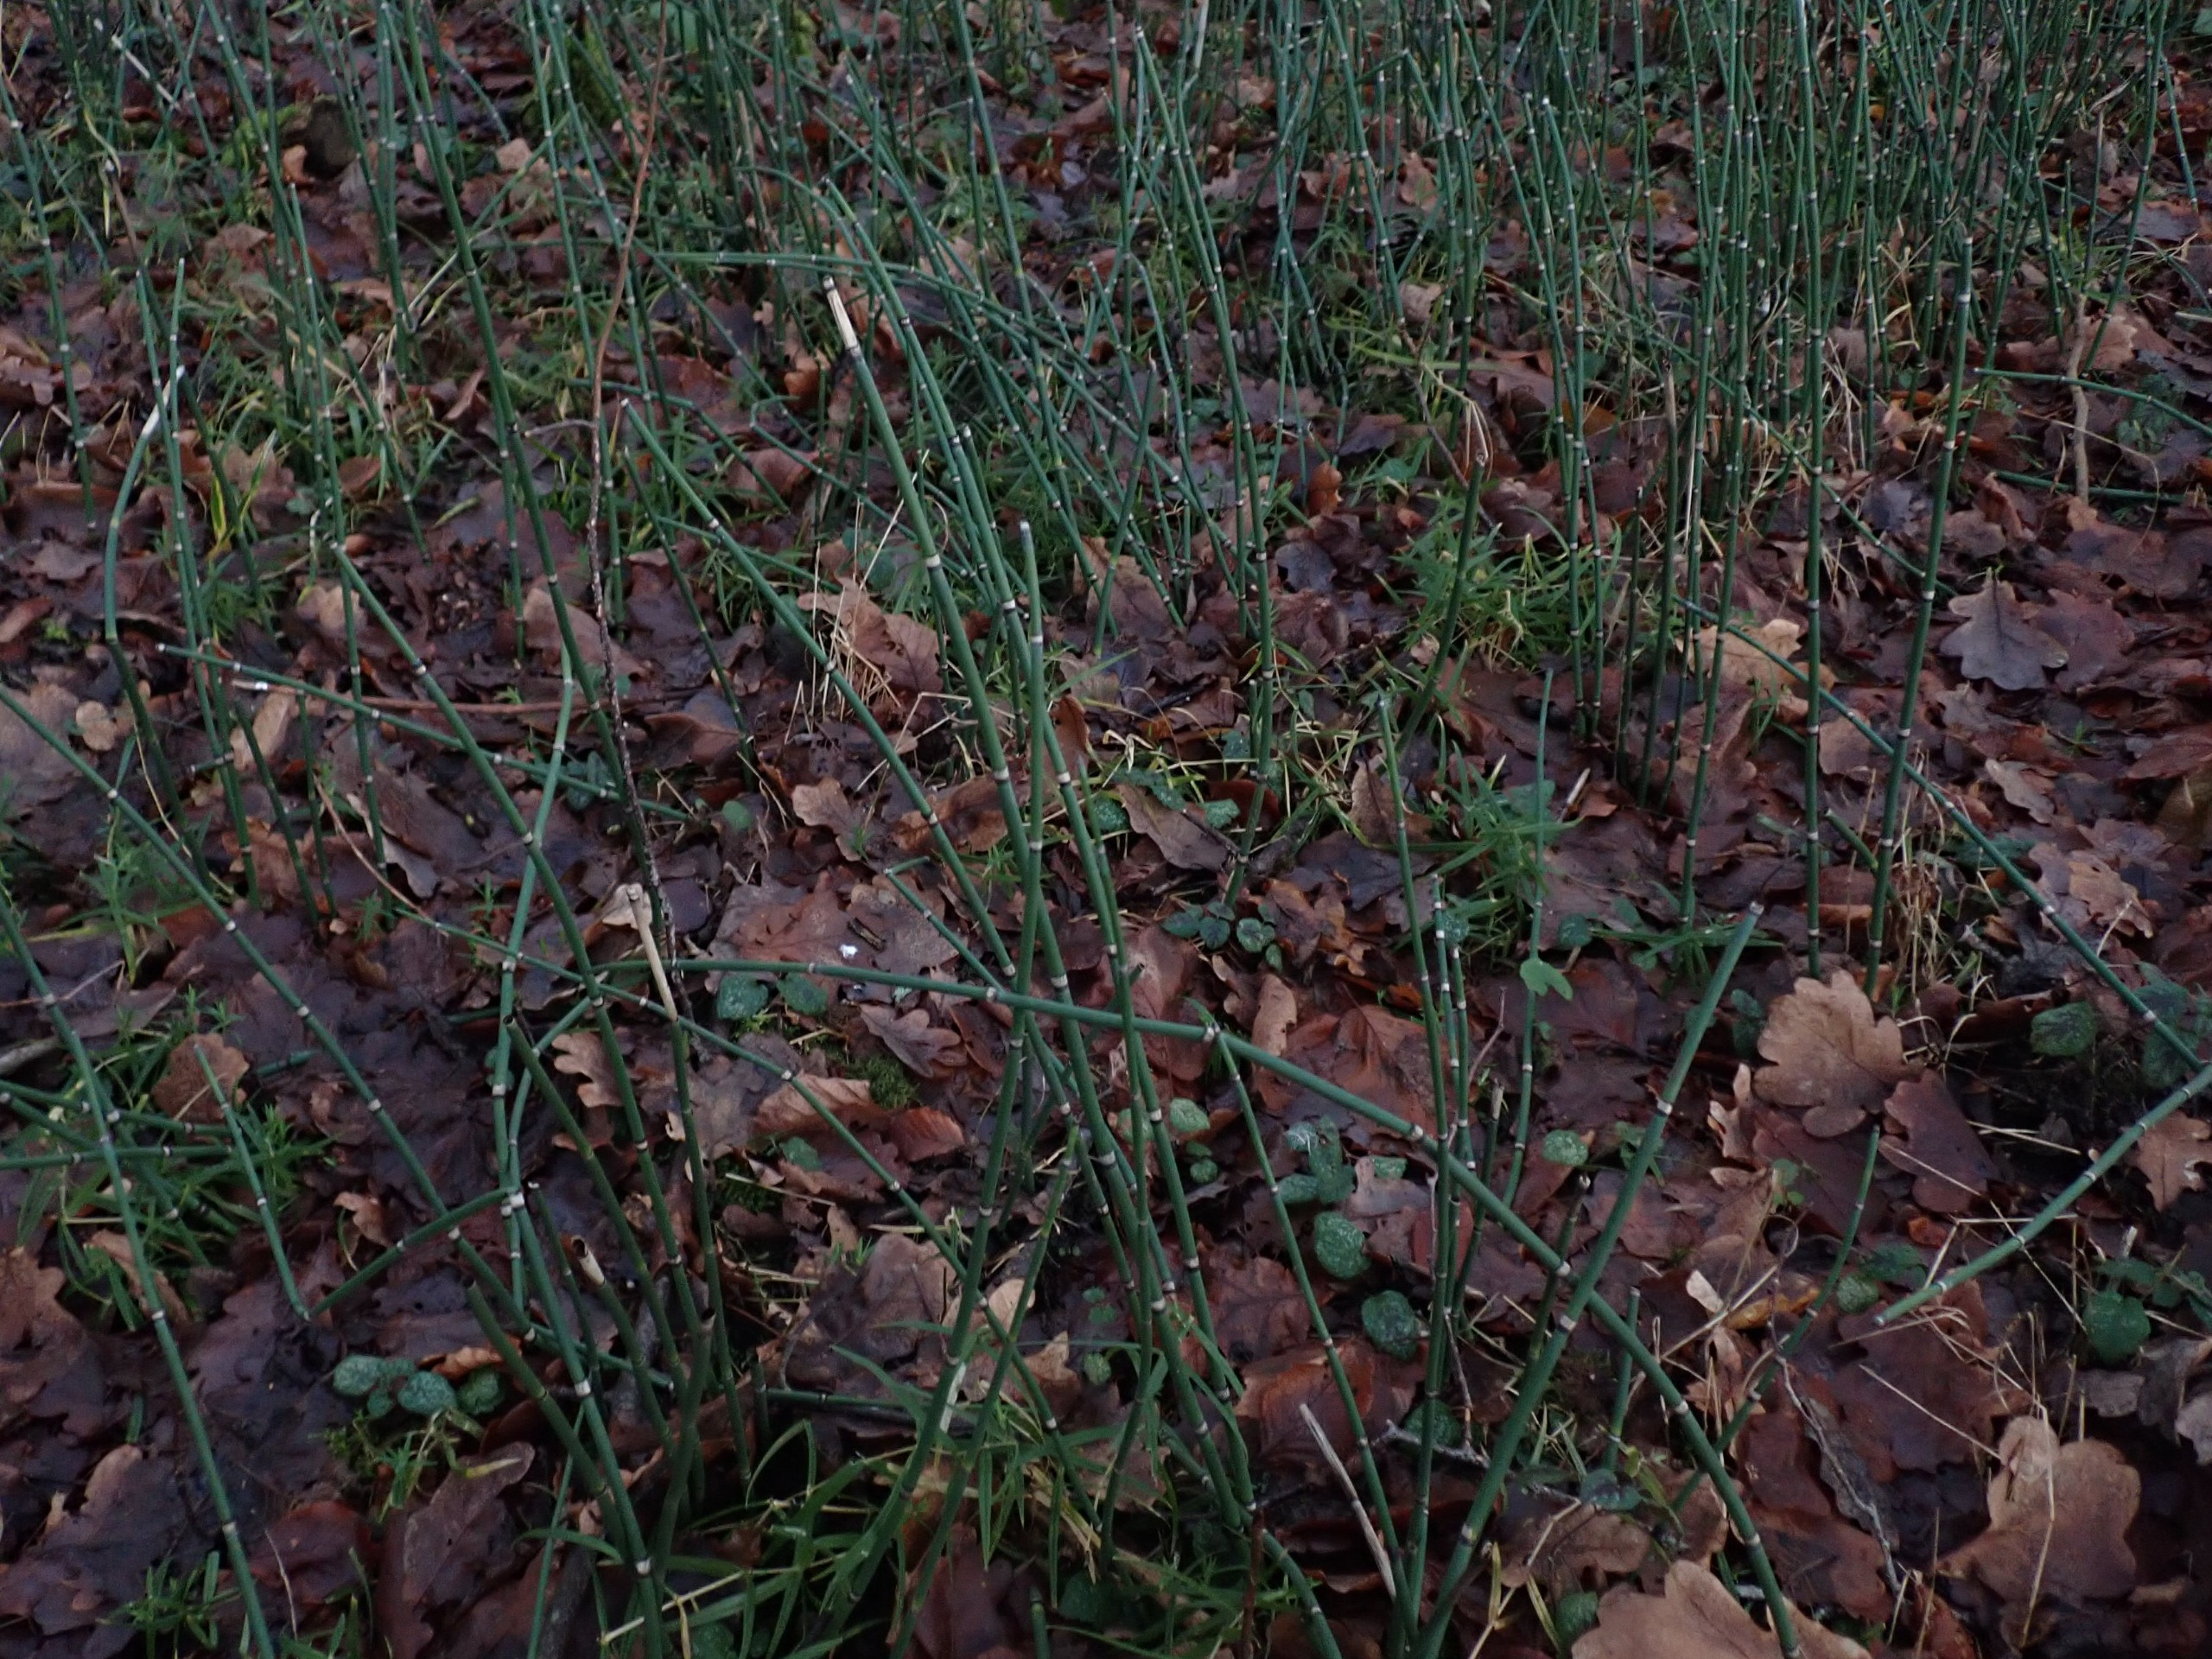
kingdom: Plantae
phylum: Tracheophyta
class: Polypodiopsida
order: Equisetales
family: Equisetaceae
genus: Equisetum
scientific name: Equisetum hyemale
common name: Skavgræs
